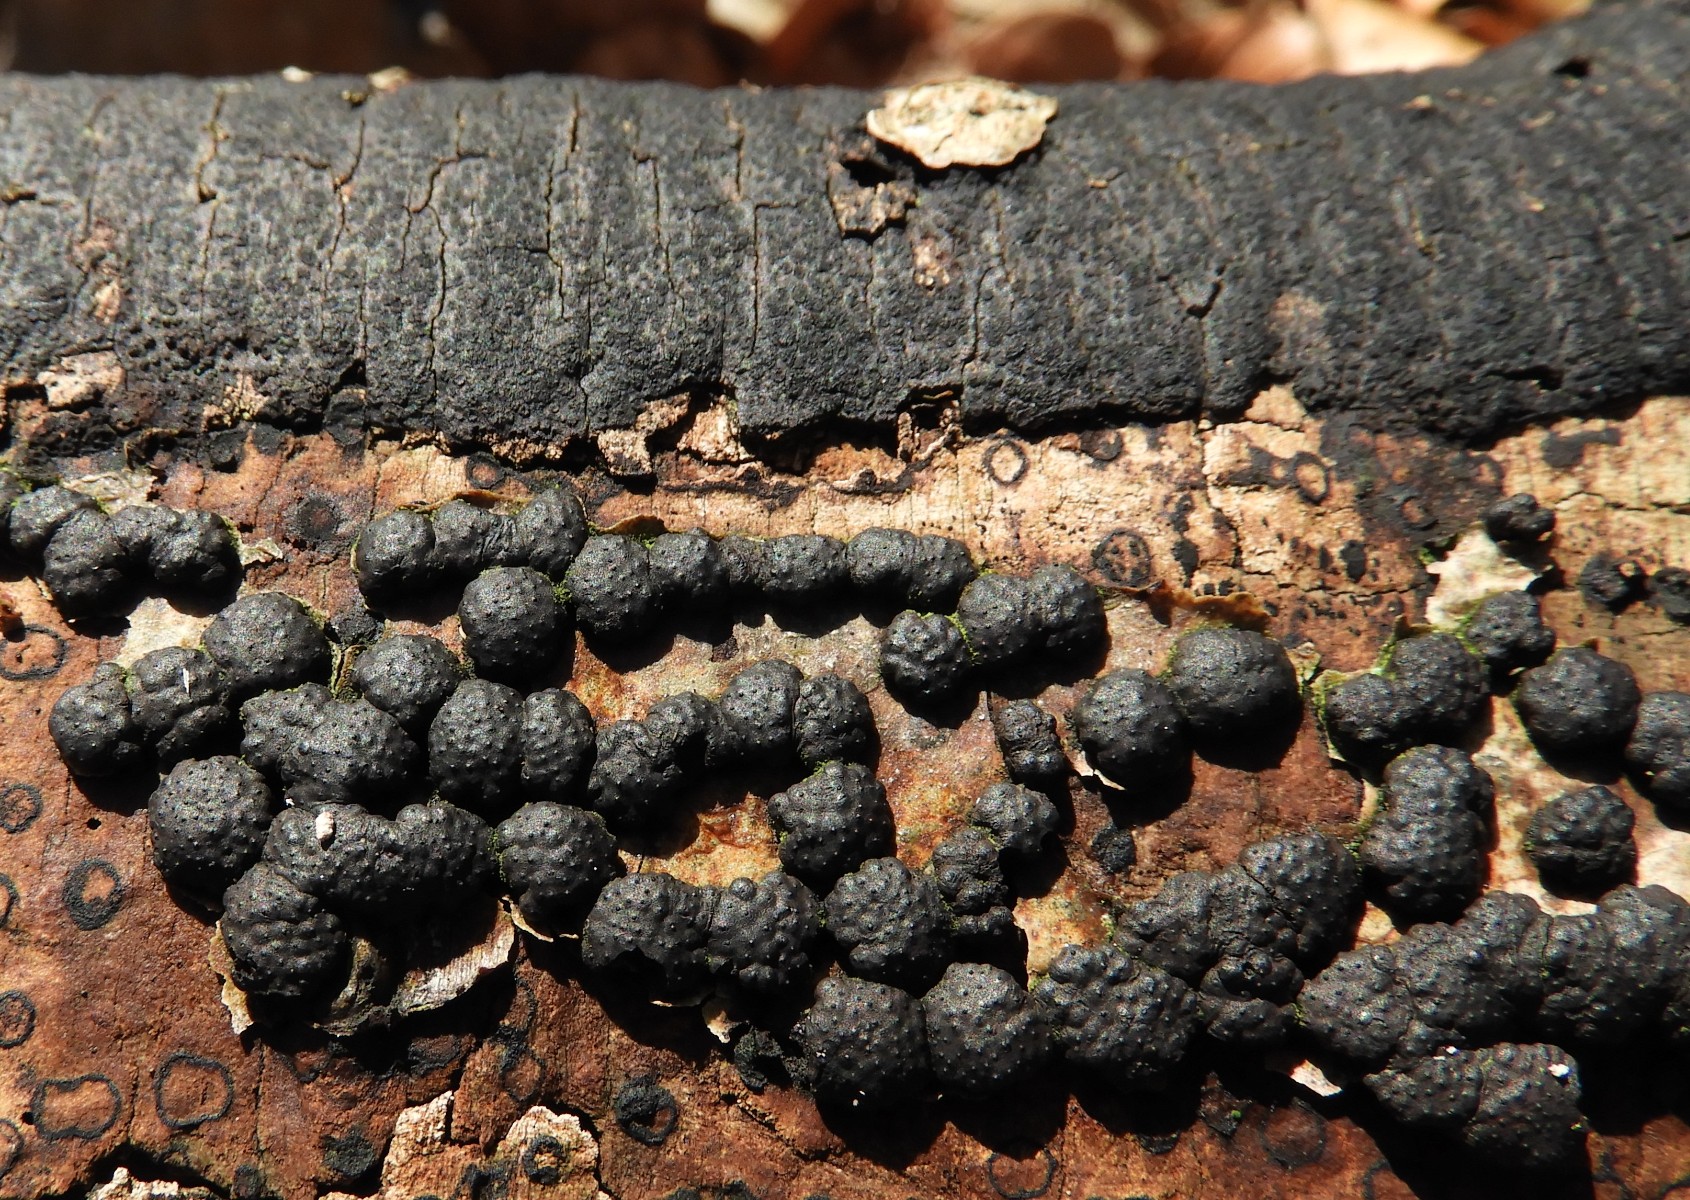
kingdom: Fungi
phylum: Ascomycota
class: Sordariomycetes
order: Xylariales
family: Diatrypaceae
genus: Eutypa
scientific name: Eutypa
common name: kulskorpe
